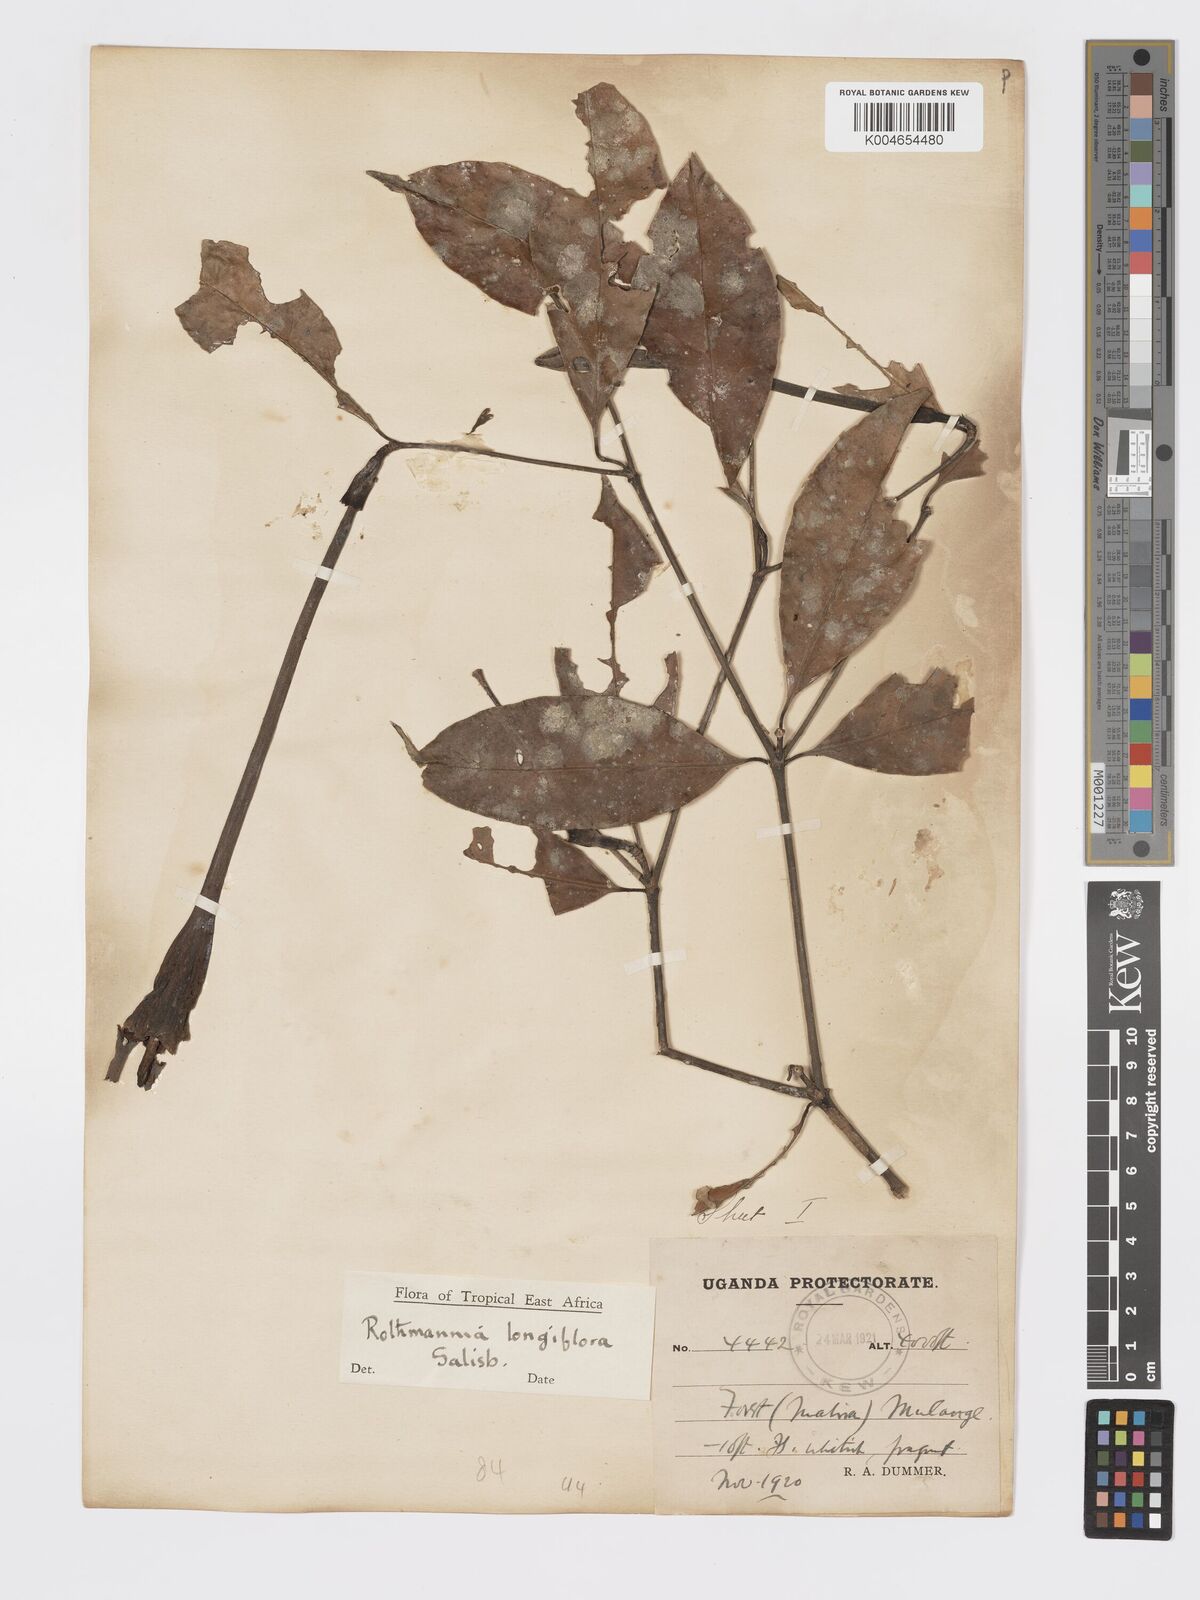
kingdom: Plantae
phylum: Tracheophyta
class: Magnoliopsida
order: Gentianales
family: Rubiaceae
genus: Rothmannia
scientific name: Rothmannia longiflora
